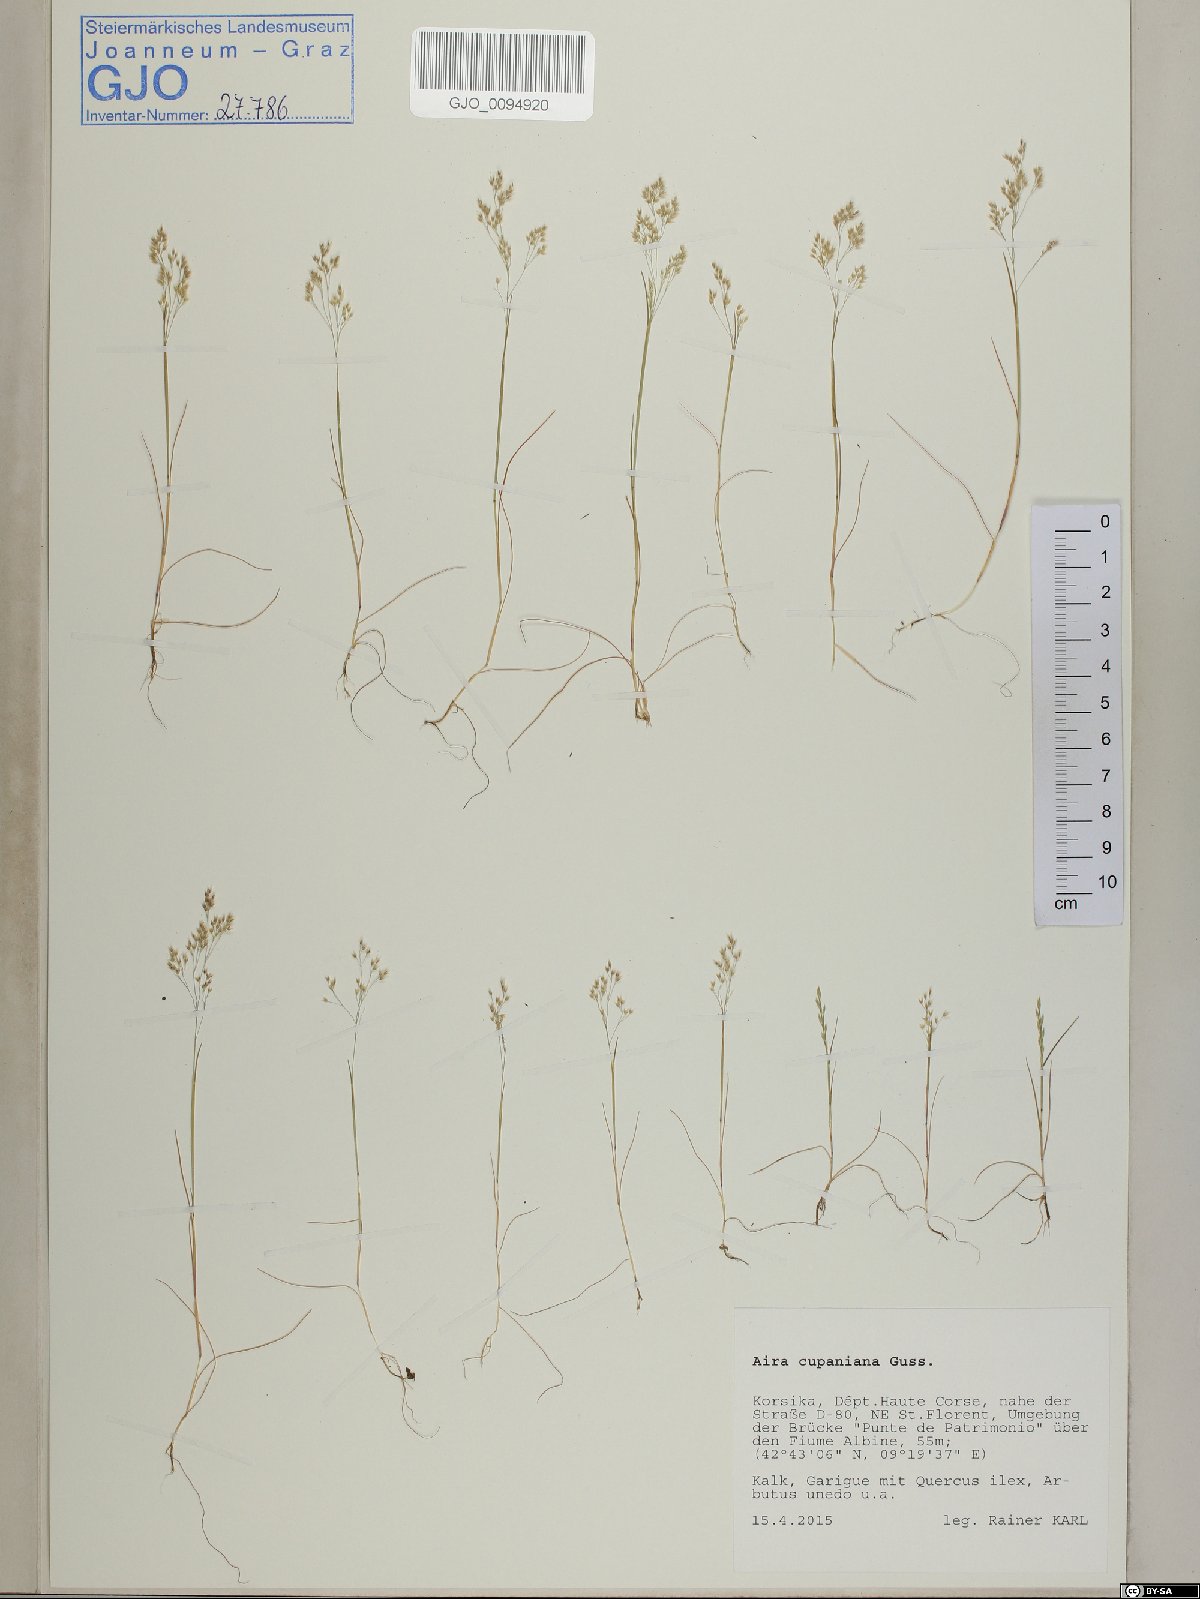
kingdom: Plantae
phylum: Tracheophyta
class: Liliopsida
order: Poales
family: Poaceae
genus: Aira
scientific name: Aira cupaniana
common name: Silver hairgrass
